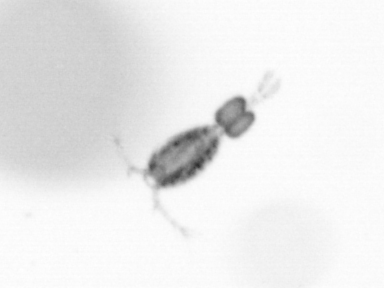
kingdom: Animalia
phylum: Arthropoda
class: Copepoda
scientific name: Copepoda
